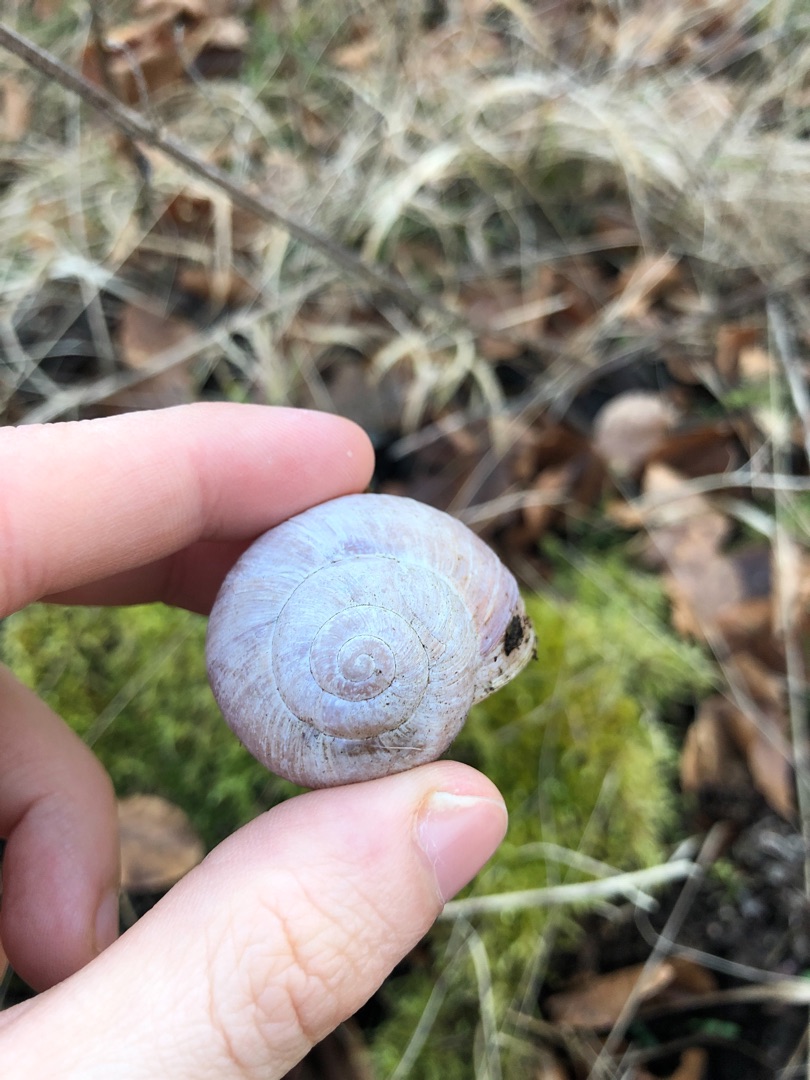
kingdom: Animalia
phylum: Mollusca
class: Gastropoda
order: Stylommatophora
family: Helicidae
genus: Helix
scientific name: Helix pomatia
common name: Vinbjergsnegl
